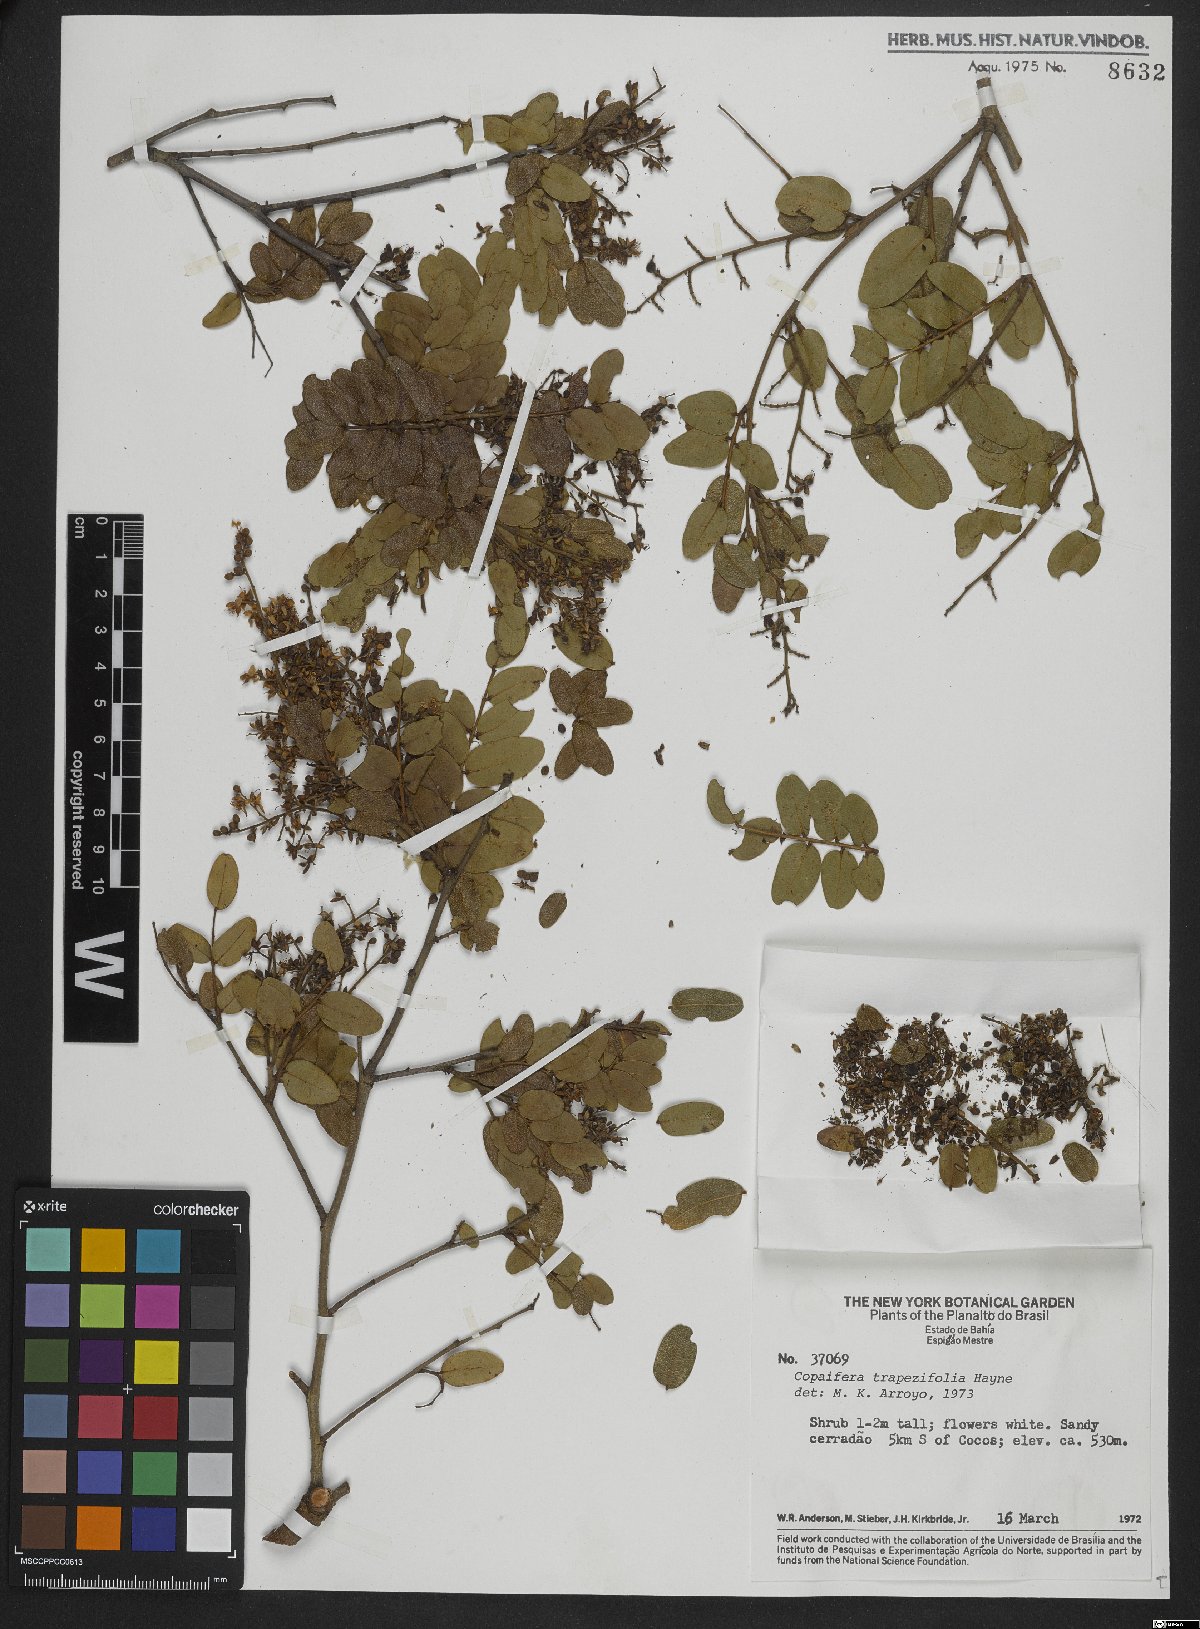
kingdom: Plantae
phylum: Tracheophyta
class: Magnoliopsida
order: Fabales
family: Fabaceae
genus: Copaifera
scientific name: Copaifera trapezifolia
